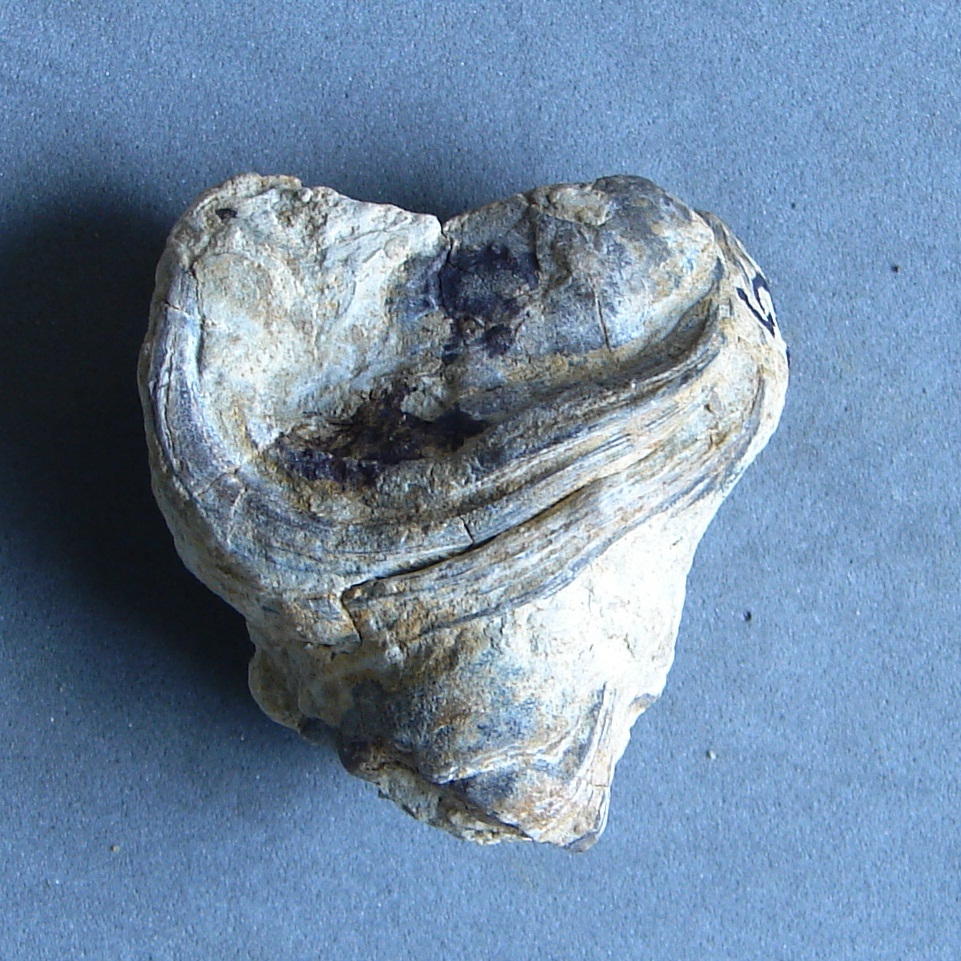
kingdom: Animalia
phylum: Mollusca
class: Bivalvia
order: Ostreida
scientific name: Ostreida
